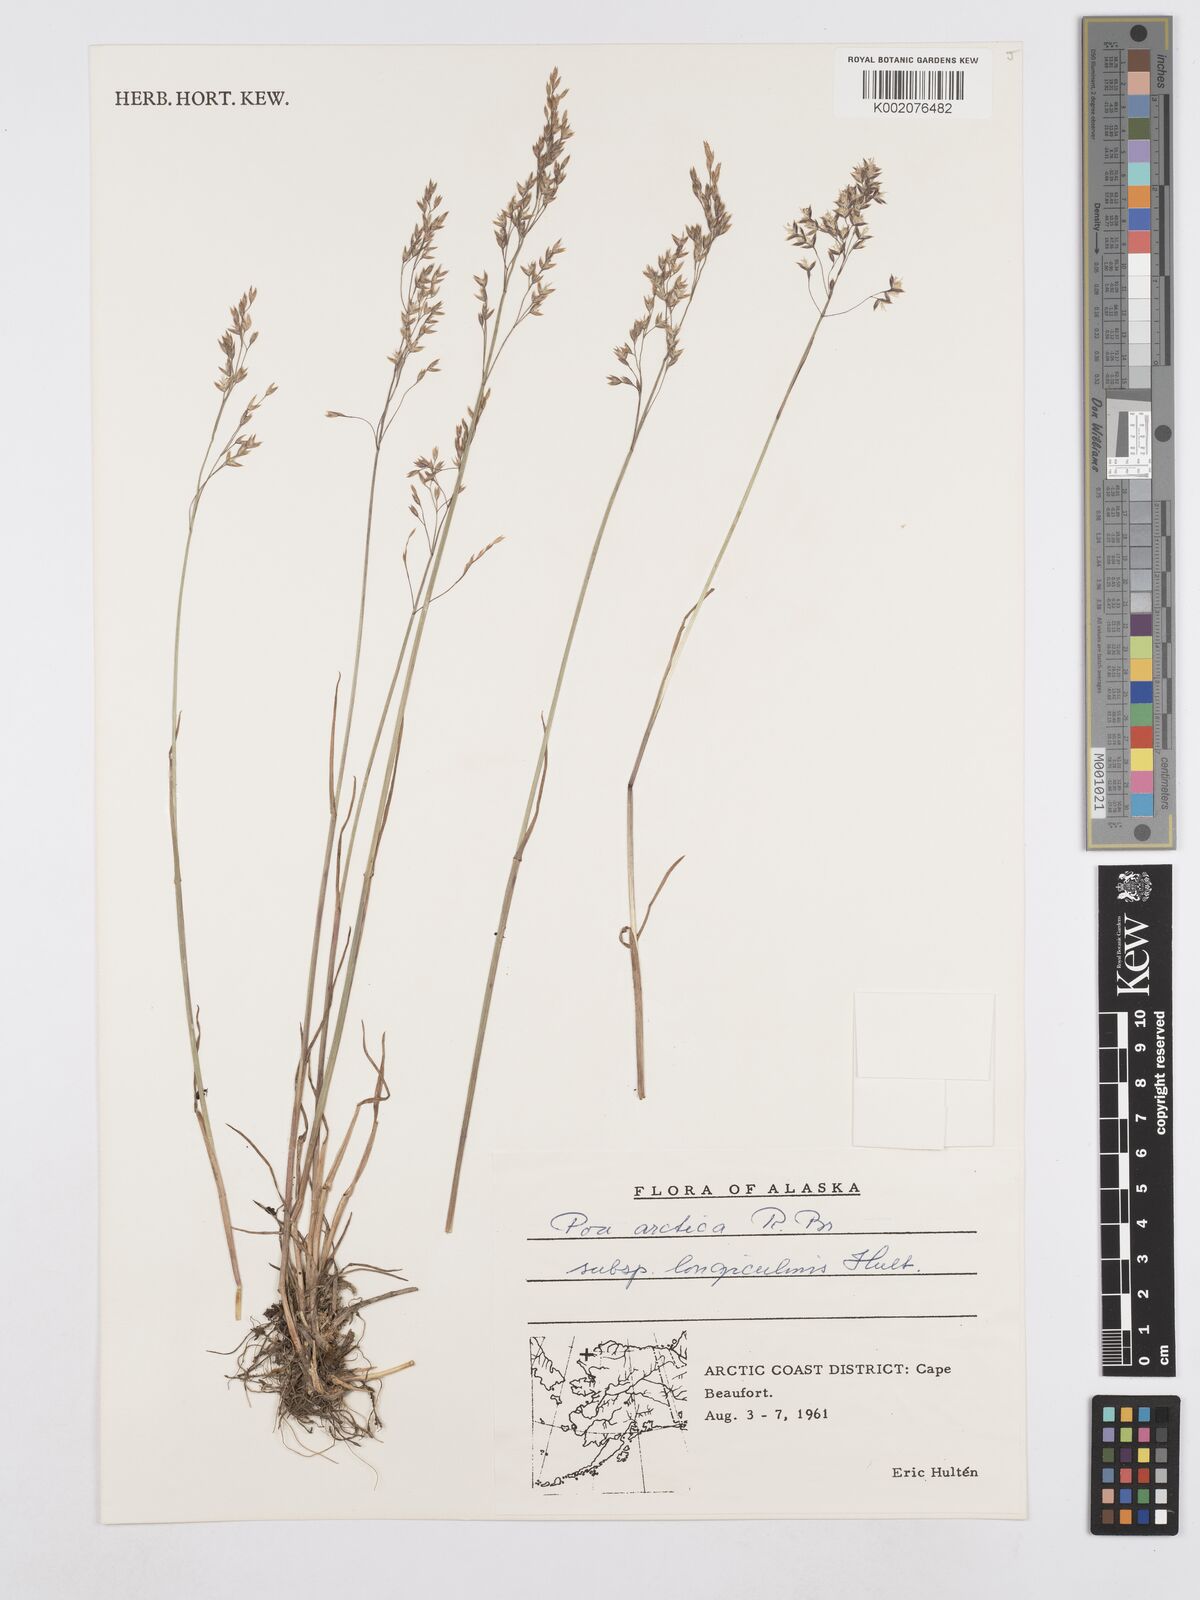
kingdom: Plantae
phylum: Tracheophyta
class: Liliopsida
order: Poales
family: Poaceae
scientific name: Poaceae
